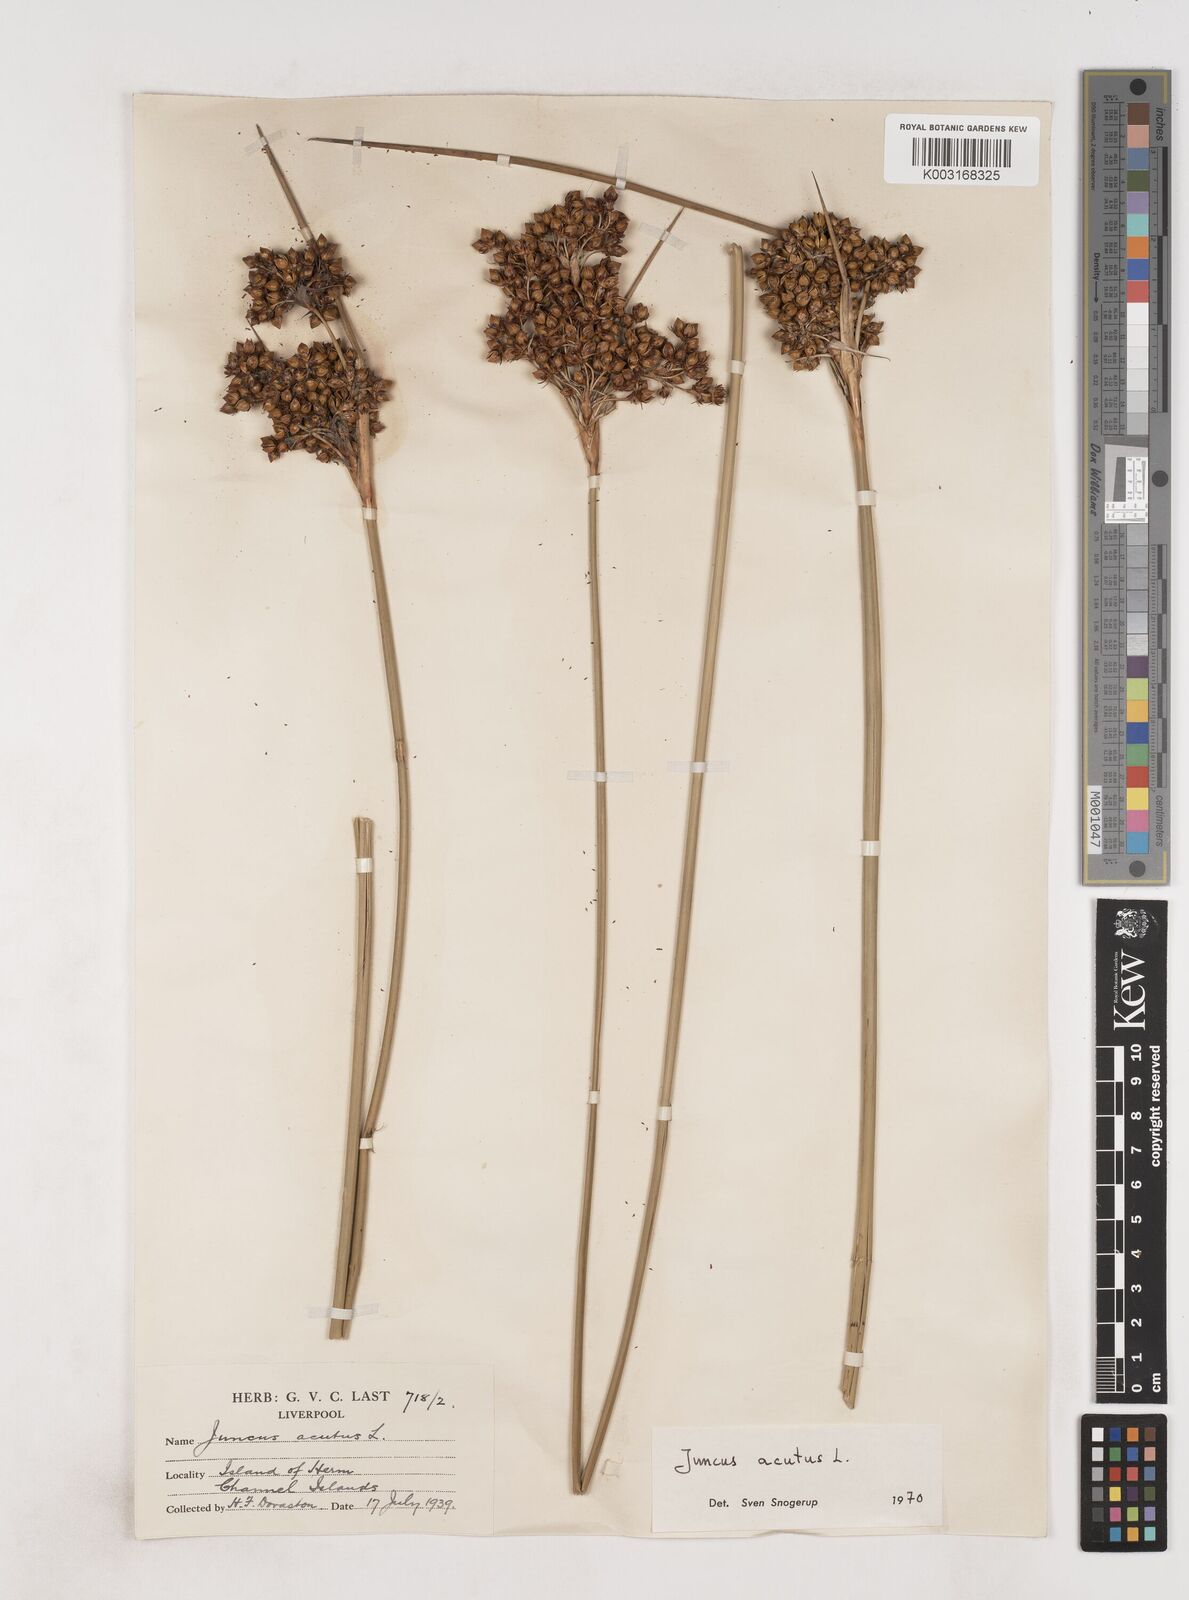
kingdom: Plantae
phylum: Tracheophyta
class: Liliopsida
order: Poales
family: Juncaceae
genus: Juncus
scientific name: Juncus acutus
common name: Sharp rush
